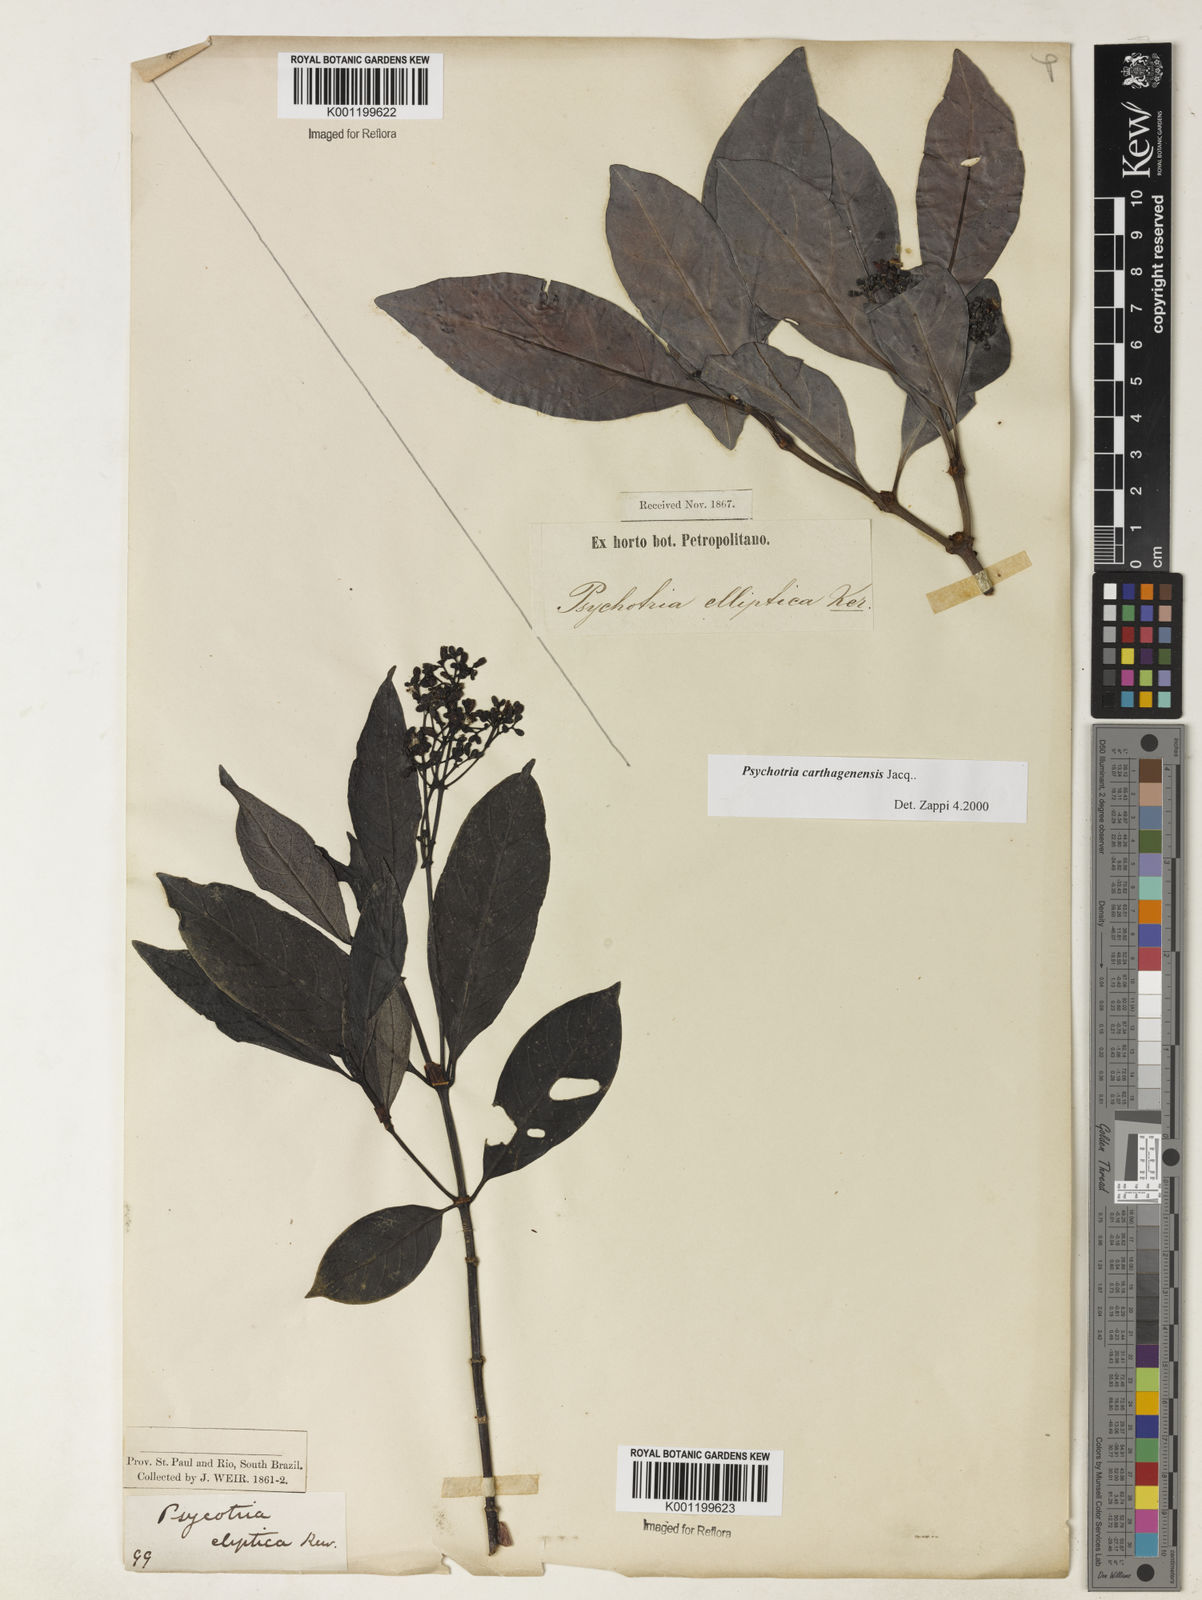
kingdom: Plantae
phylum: Tracheophyta
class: Magnoliopsida
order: Gentianales
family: Rubiaceae
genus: Psychotria
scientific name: Psychotria carthagenensis
